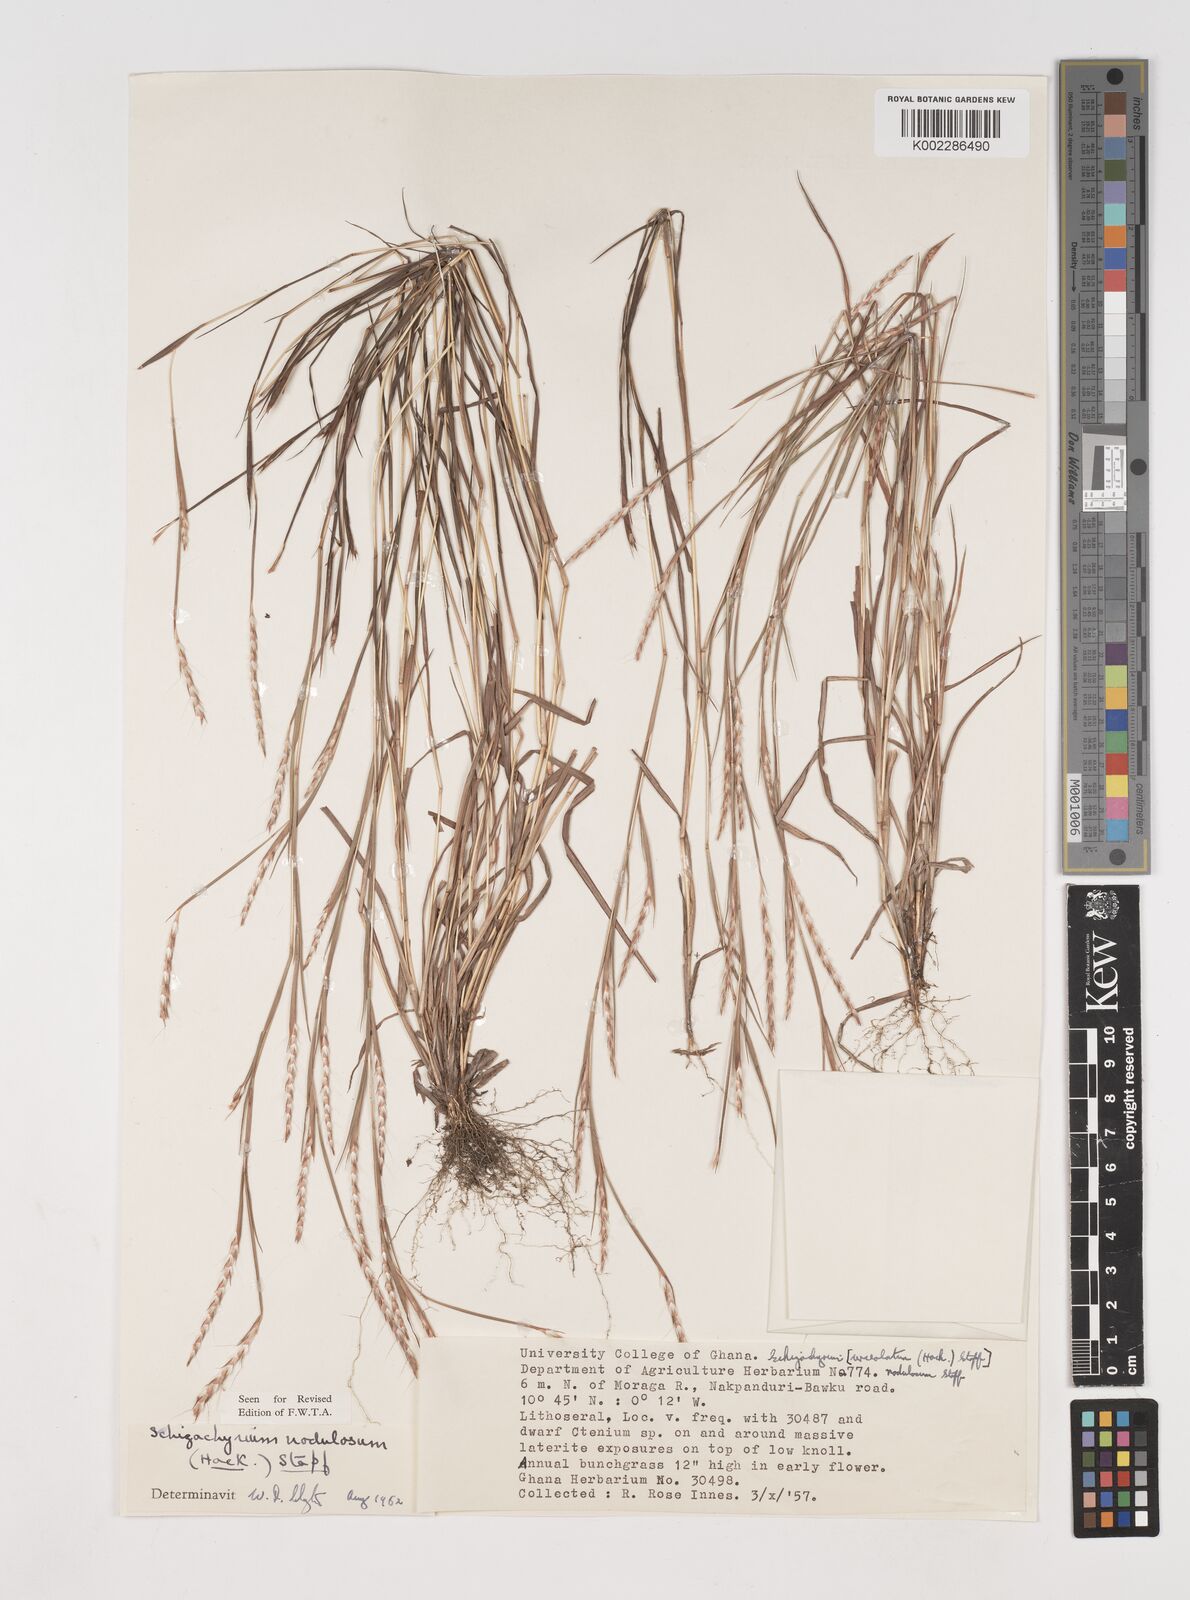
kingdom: Plantae
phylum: Tracheophyta
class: Liliopsida
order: Poales
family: Poaceae
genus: Schizachyrium
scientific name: Schizachyrium nodulosum
